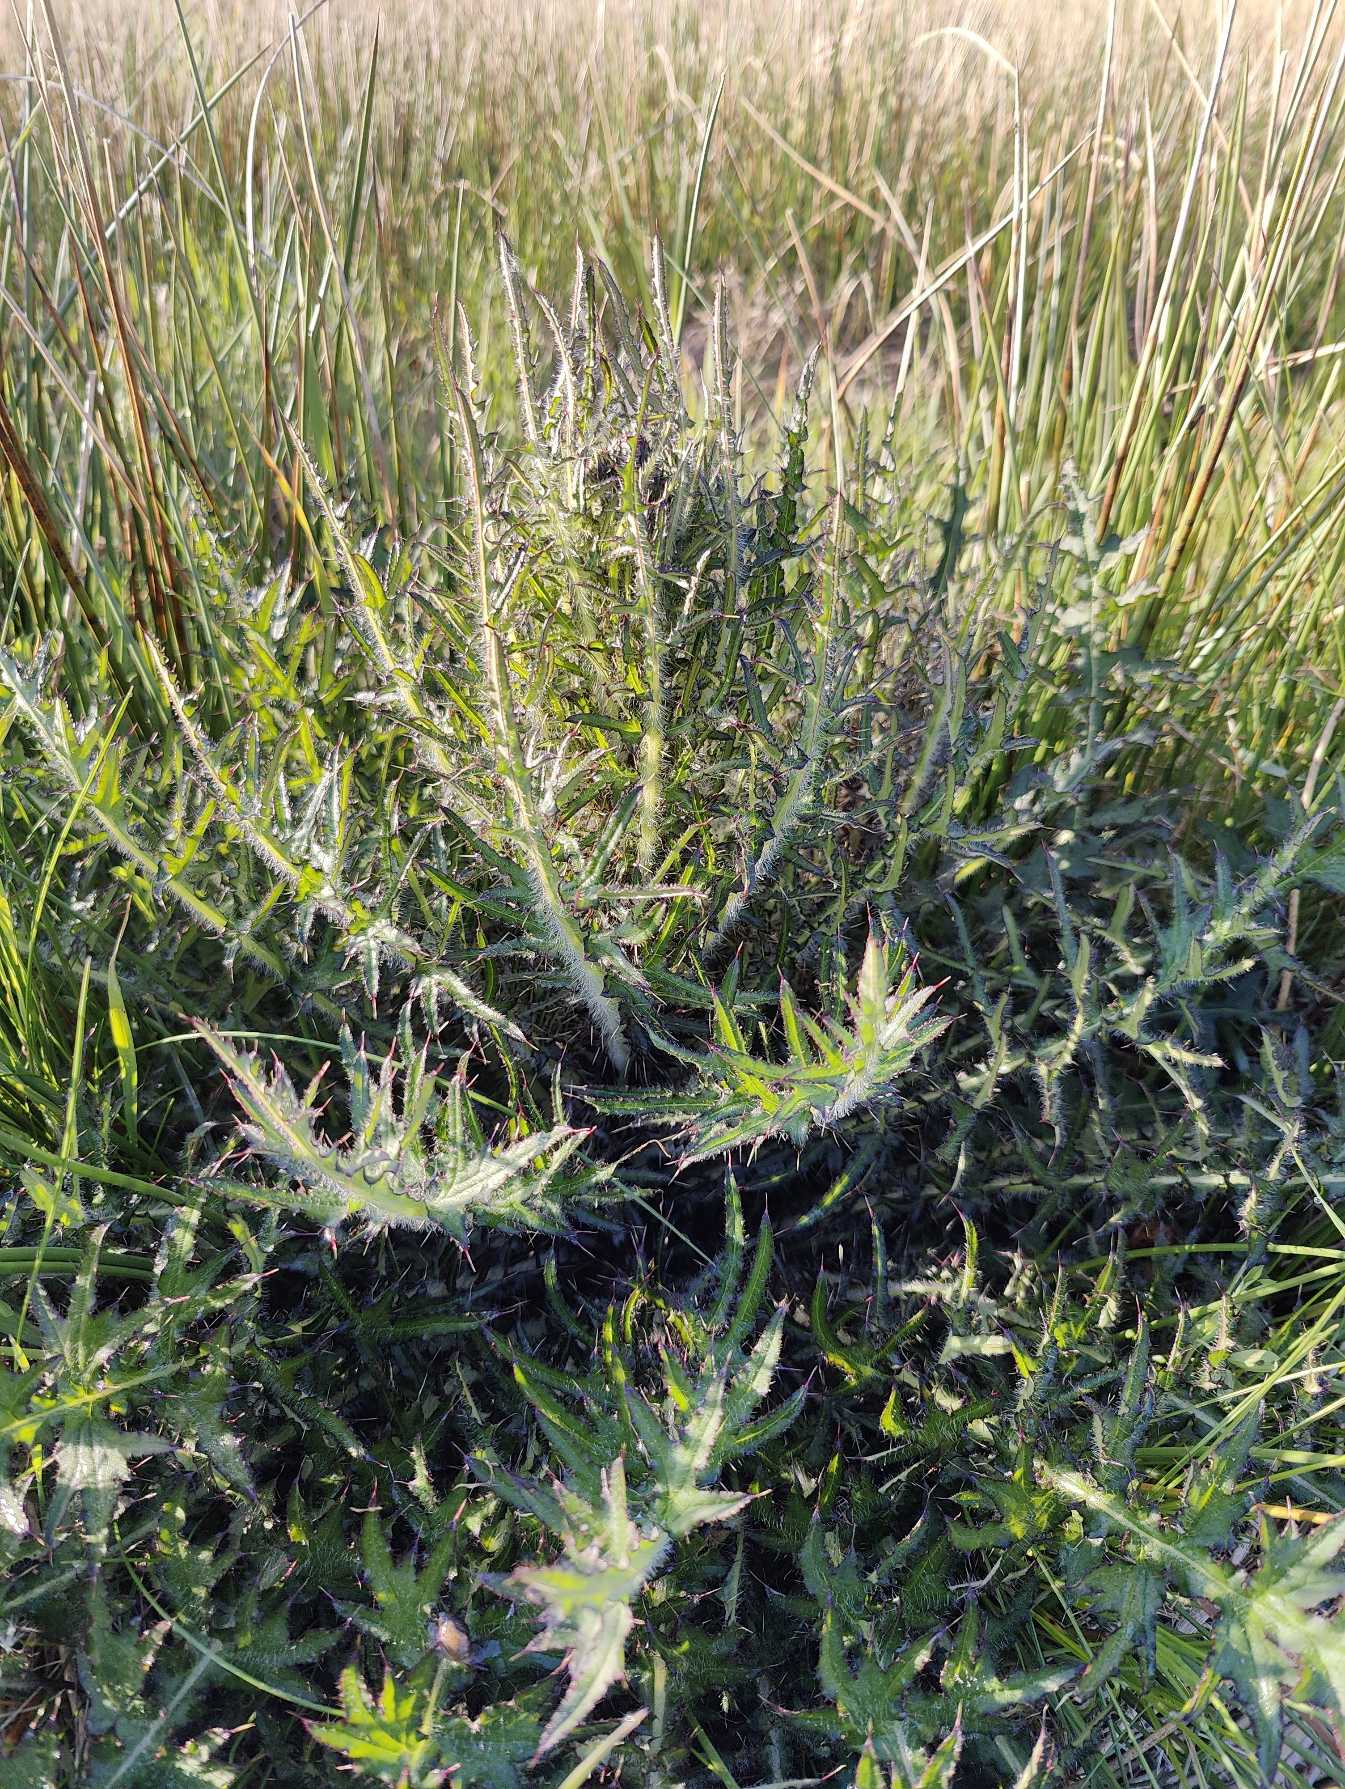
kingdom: Plantae
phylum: Tracheophyta
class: Magnoliopsida
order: Asterales
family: Asteraceae
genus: Cirsium
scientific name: Cirsium palustre
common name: Kær-tidsel
